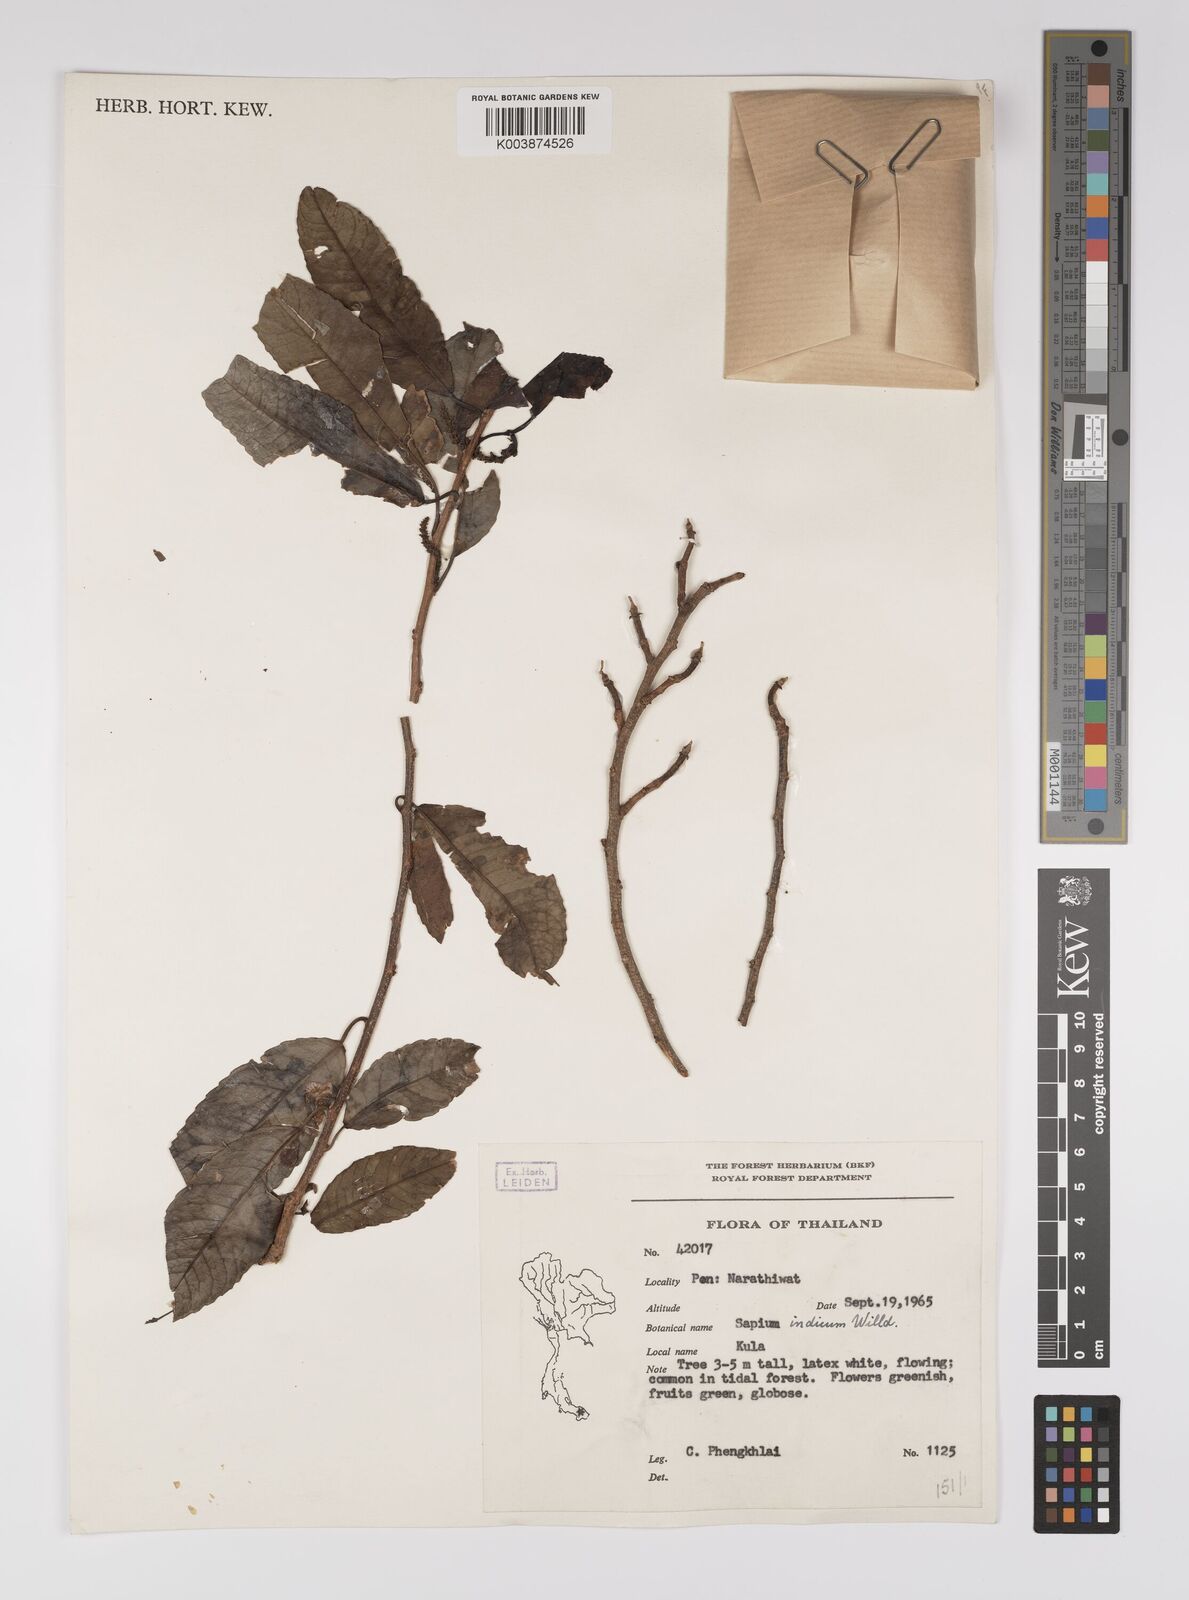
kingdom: Plantae
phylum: Tracheophyta
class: Magnoliopsida
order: Malpighiales
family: Euphorbiaceae
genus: Shirakiopsis
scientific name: Shirakiopsis indica
